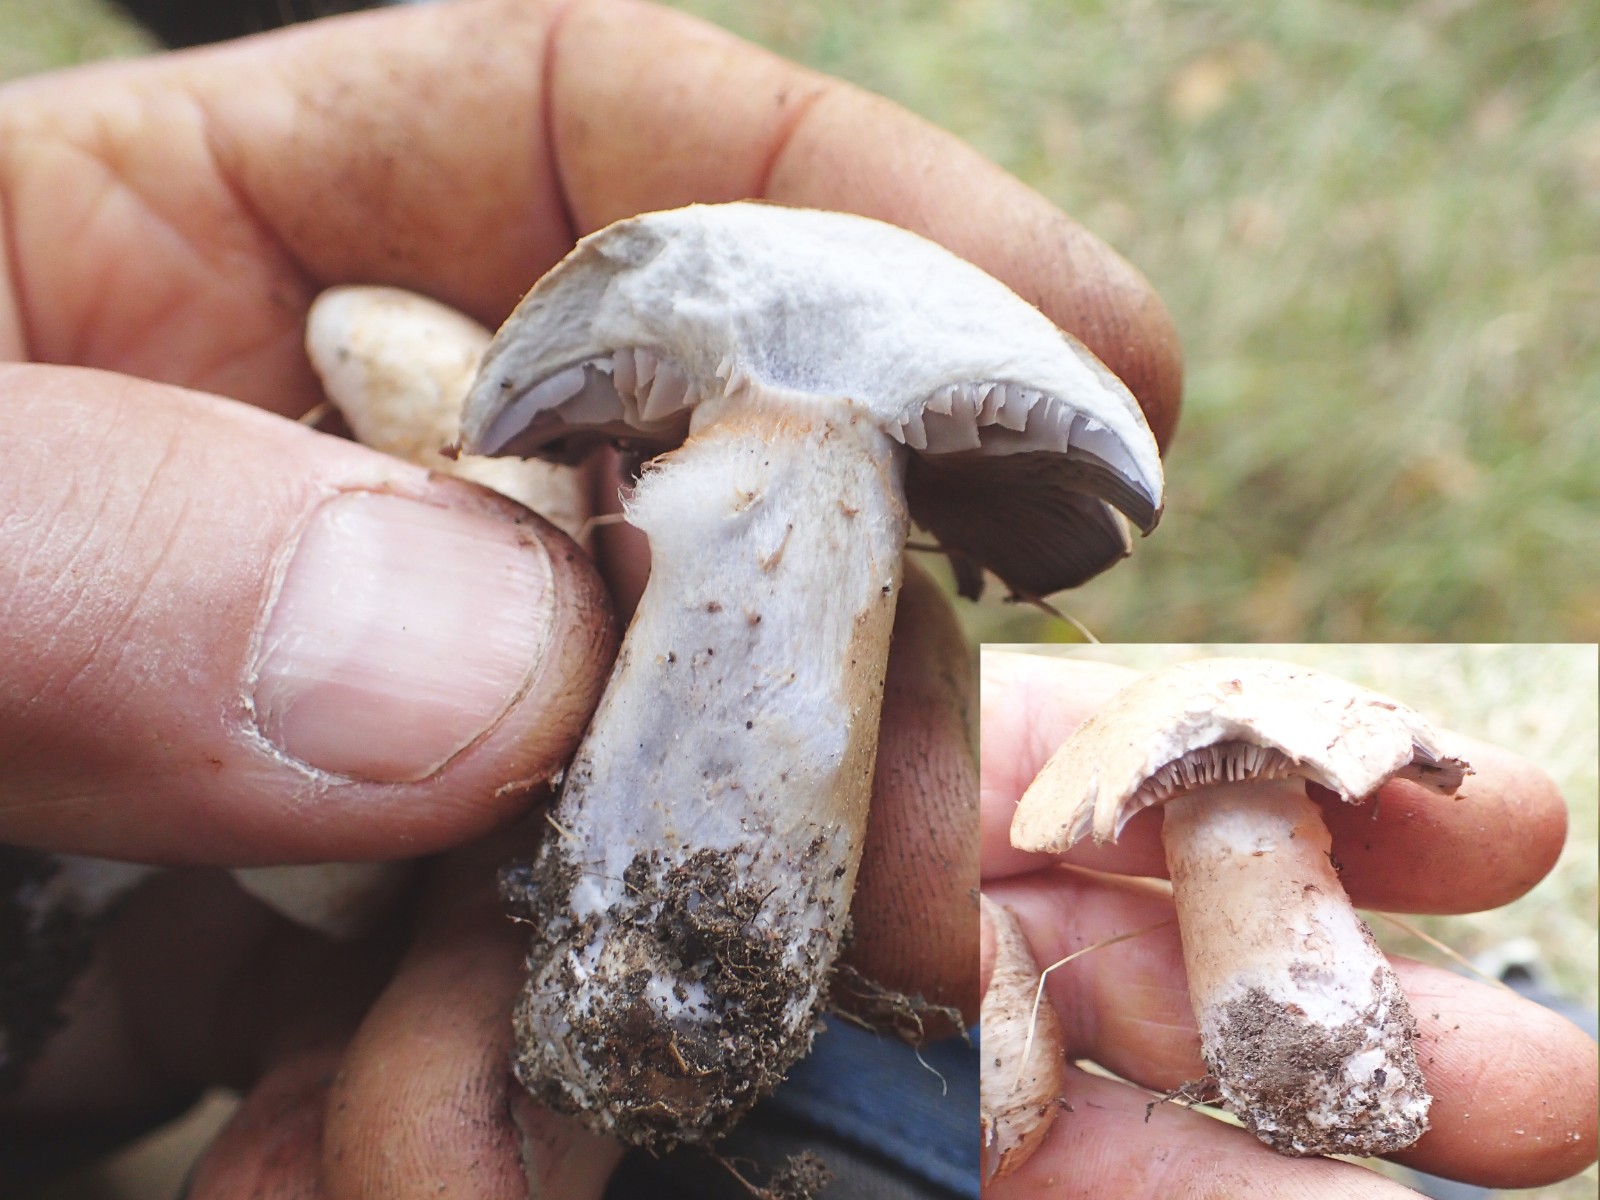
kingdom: Fungi
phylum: Basidiomycota
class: Agaricomycetes
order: Agaricales
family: Cortinariaceae
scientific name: Cortinariaceae
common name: slørhatfamilien
